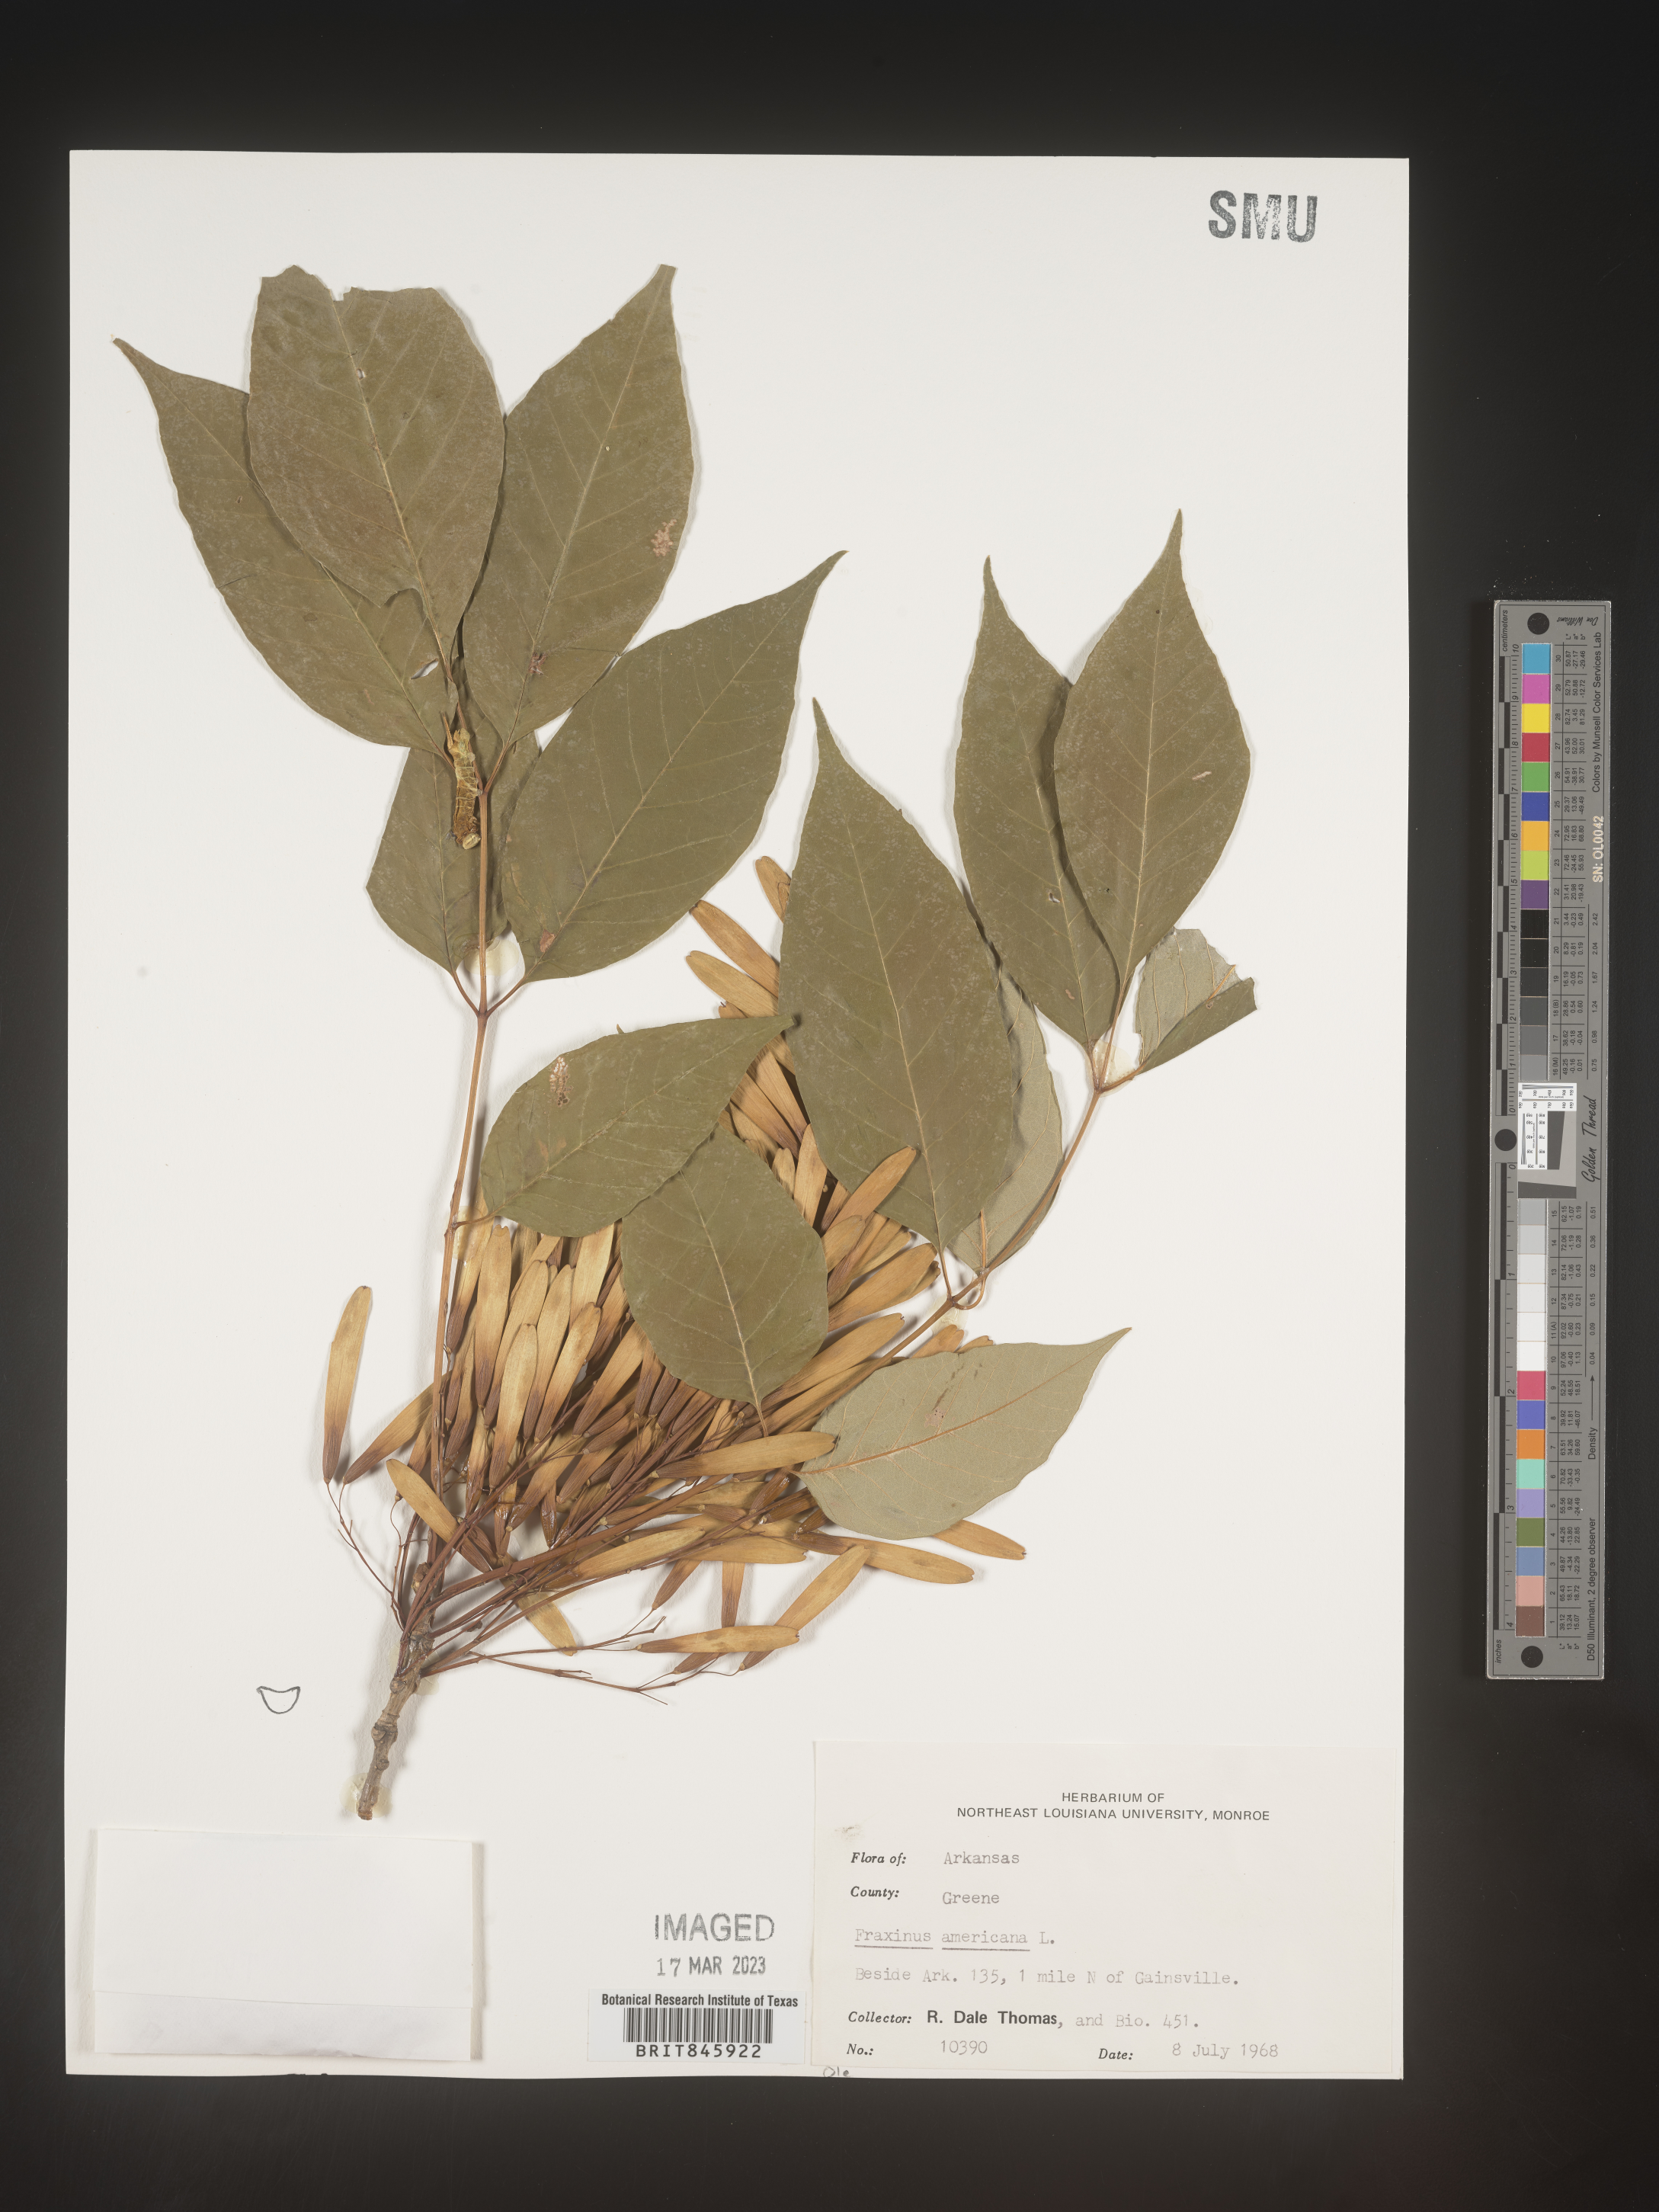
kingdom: Plantae
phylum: Tracheophyta
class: Magnoliopsida
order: Lamiales
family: Oleaceae
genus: Fraxinus
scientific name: Fraxinus americana
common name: White ash
